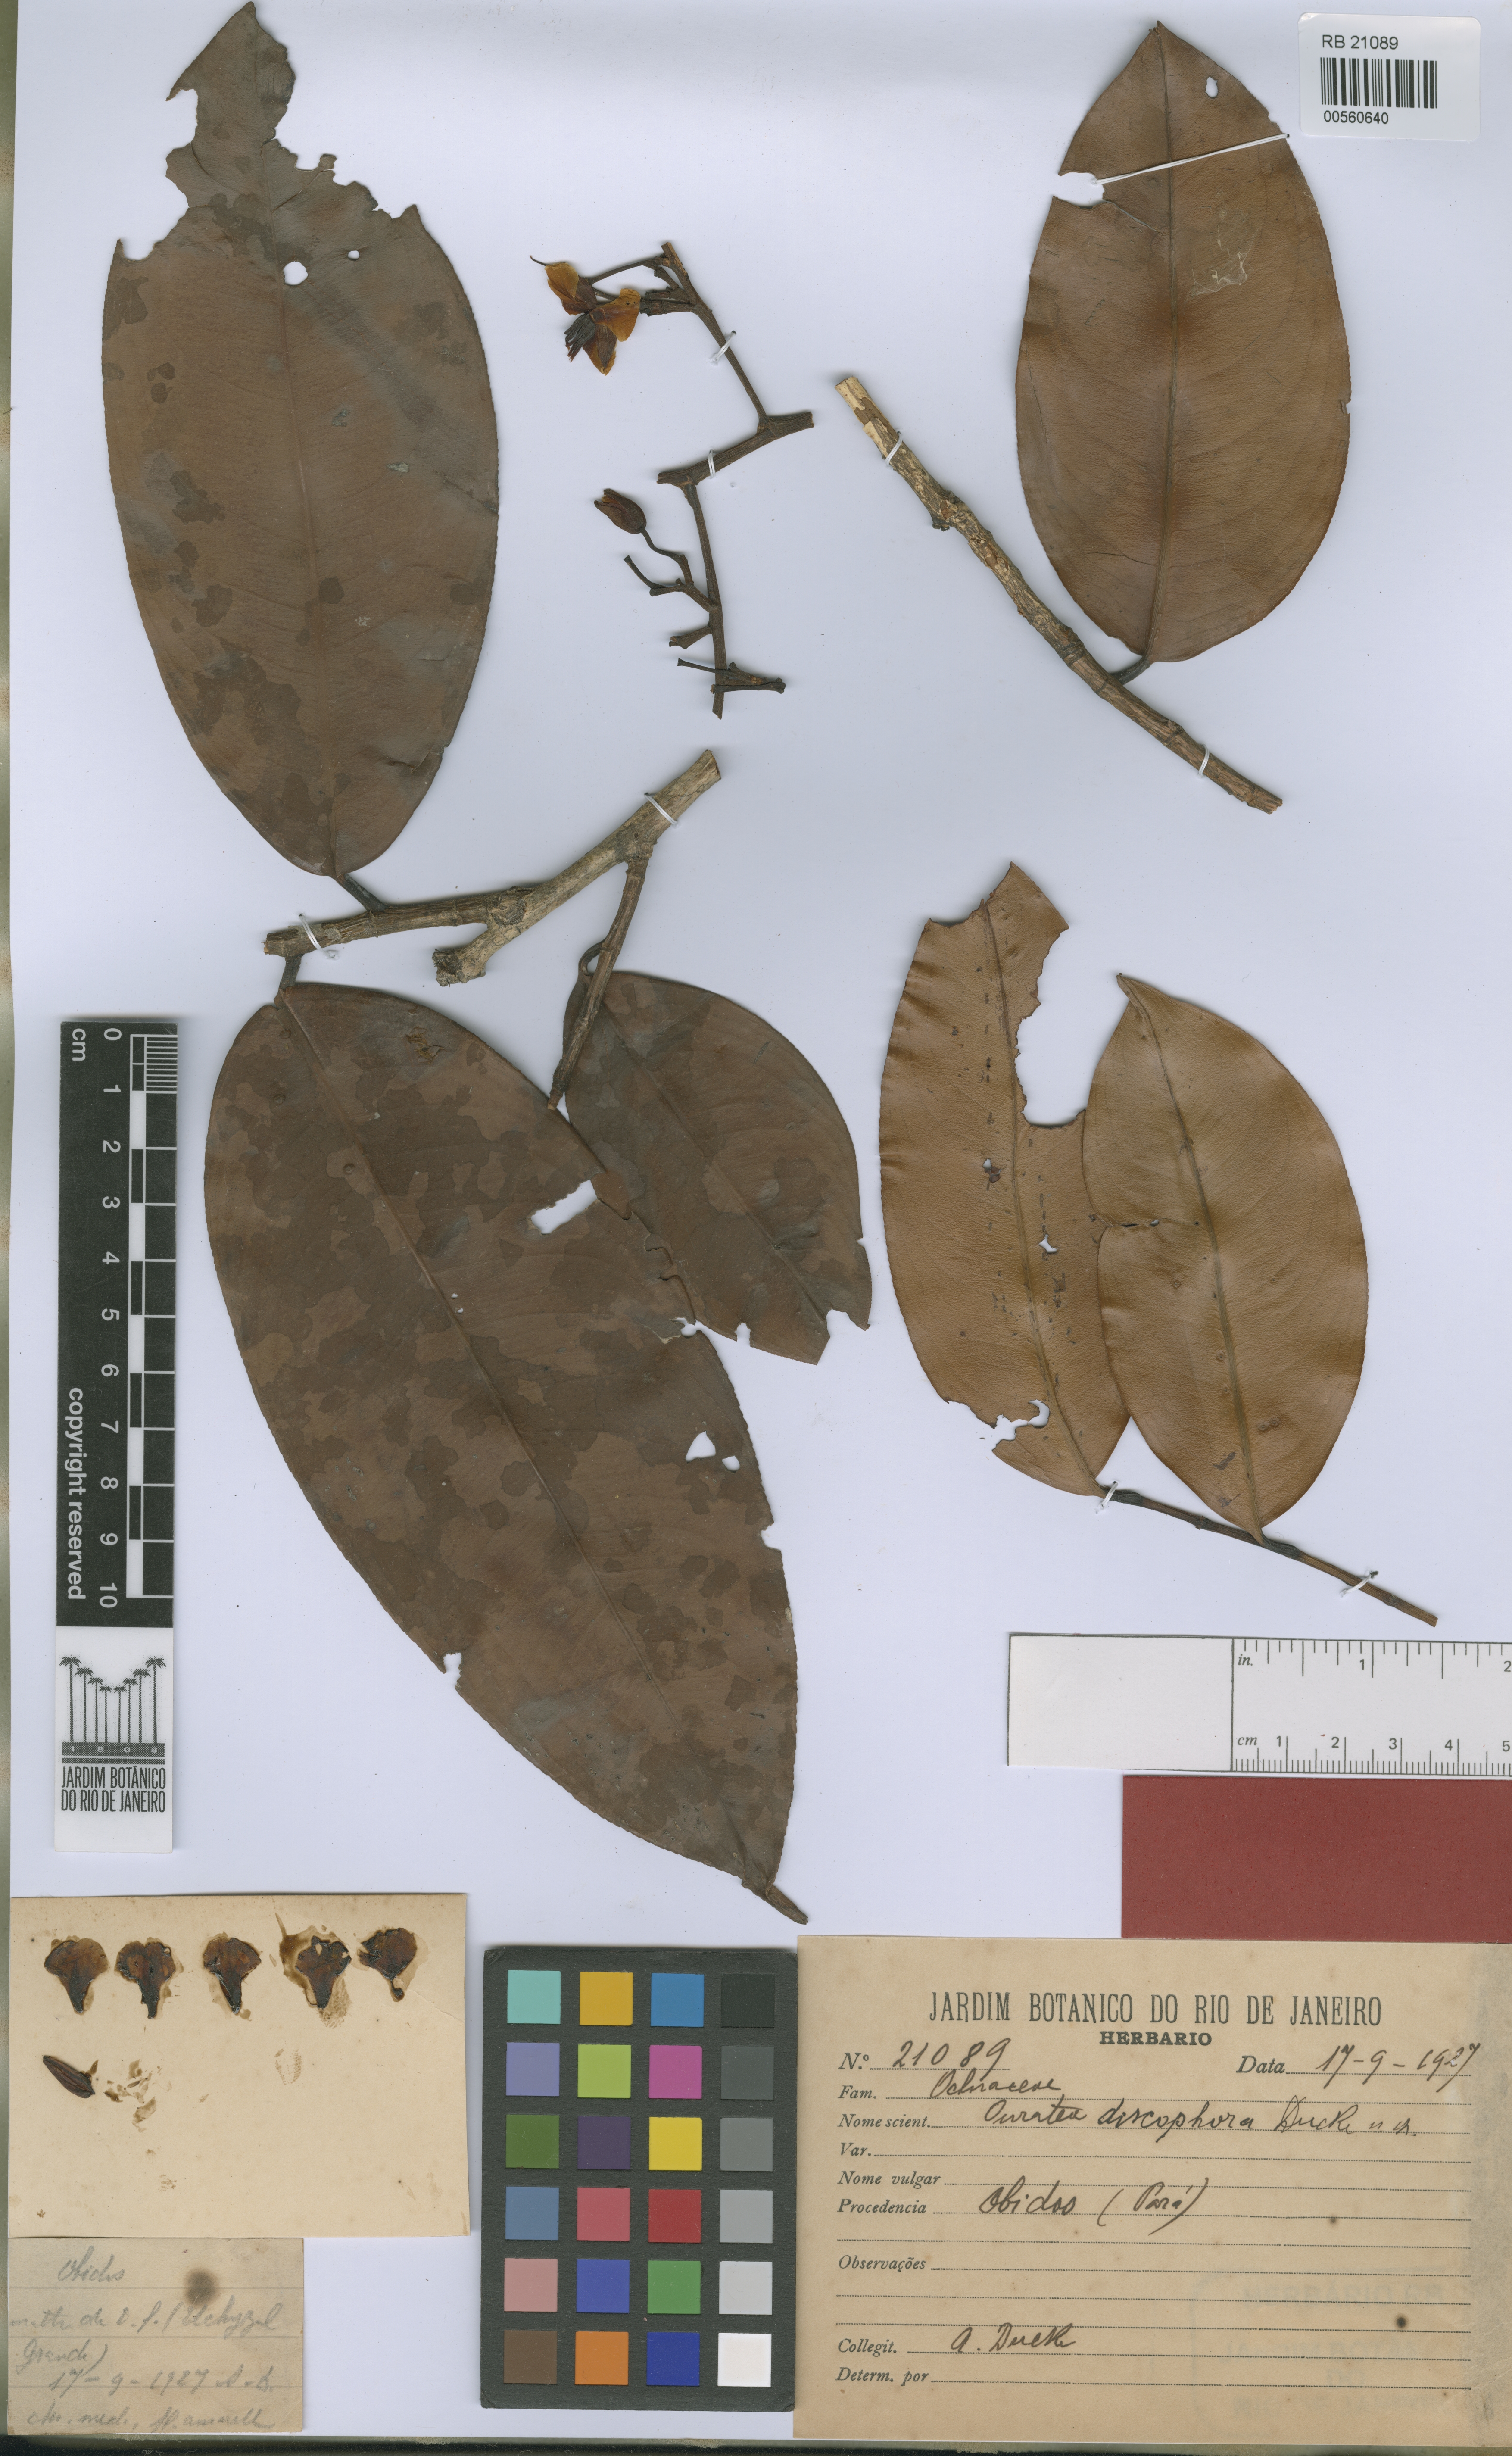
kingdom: Plantae
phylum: Tracheophyta
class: Magnoliopsida
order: Malpighiales
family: Ochnaceae
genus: Ouratea
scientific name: Ouratea discophora
